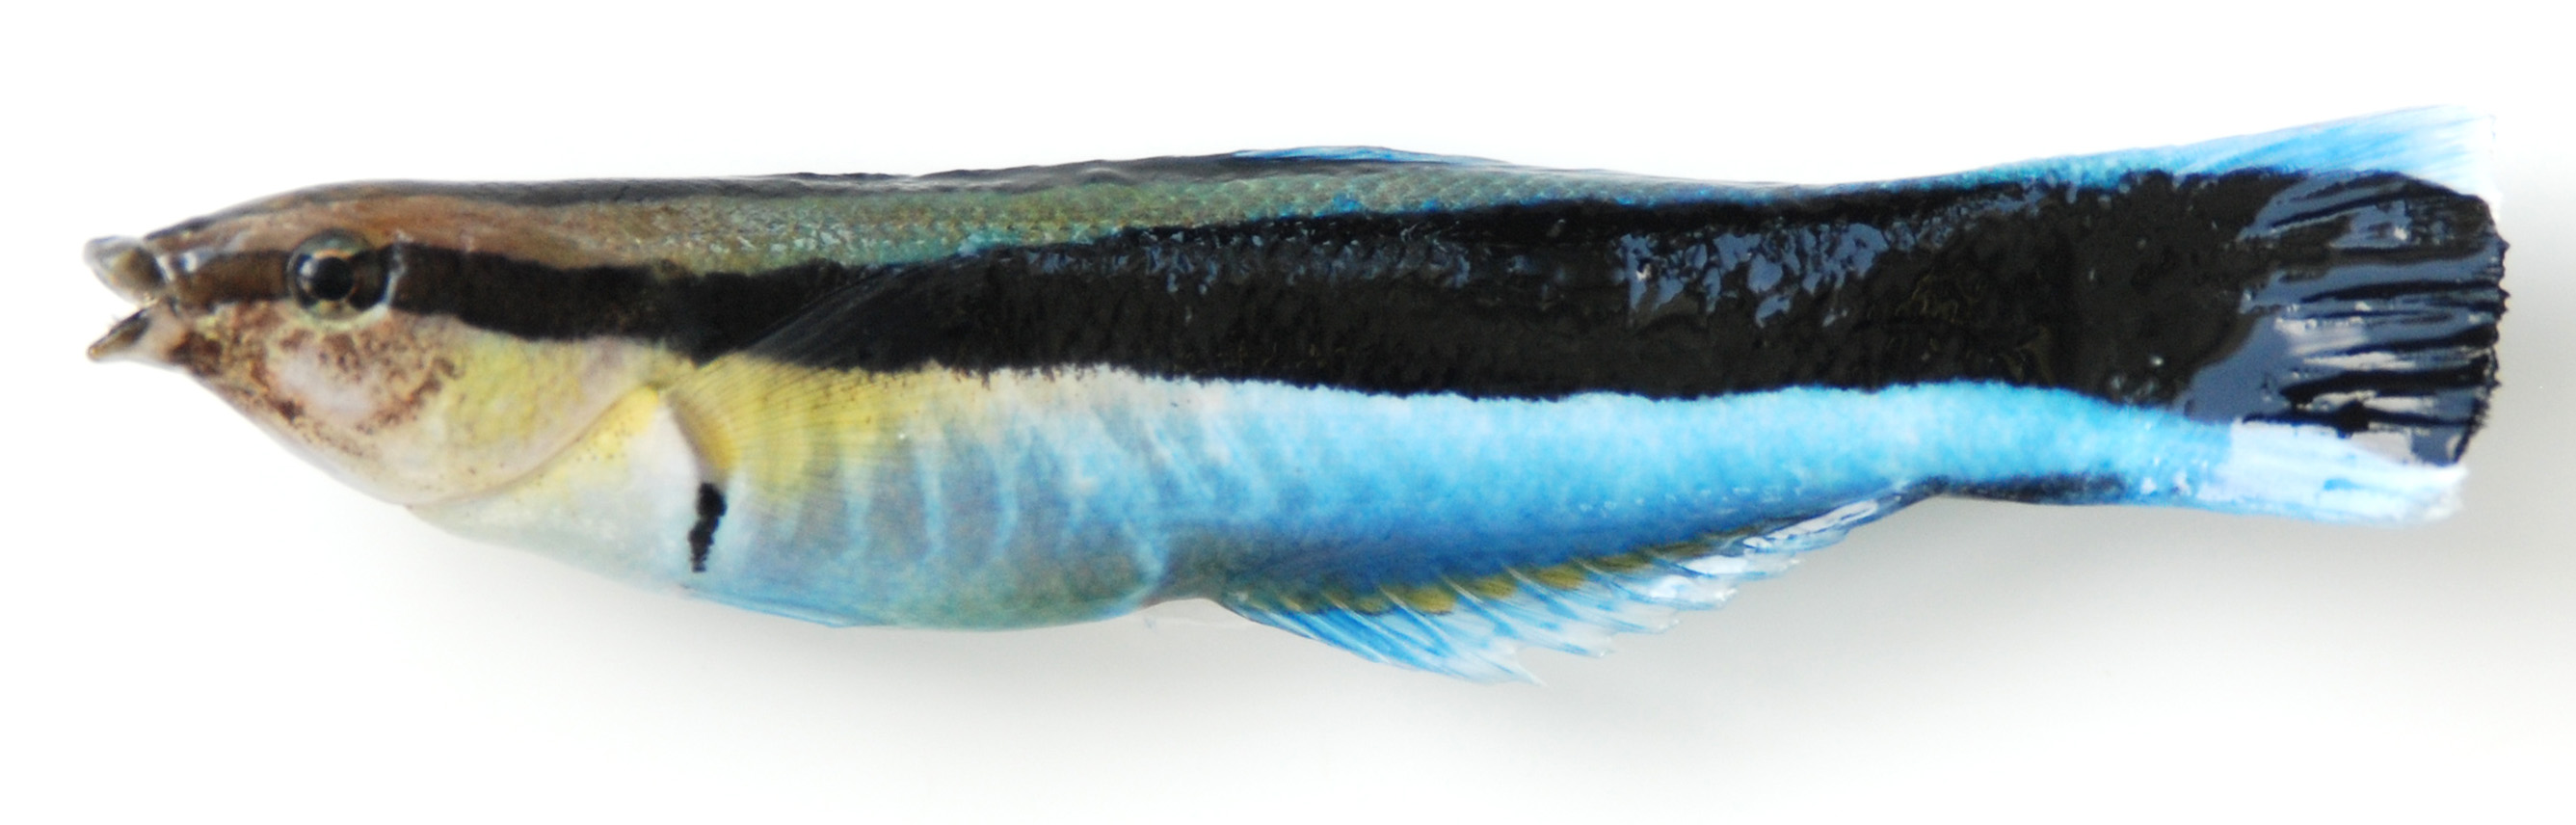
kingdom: Animalia
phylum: Chordata
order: Perciformes
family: Labridae
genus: Labroides
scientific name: Labroides dimidiatus
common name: Blue diesel wrasse
